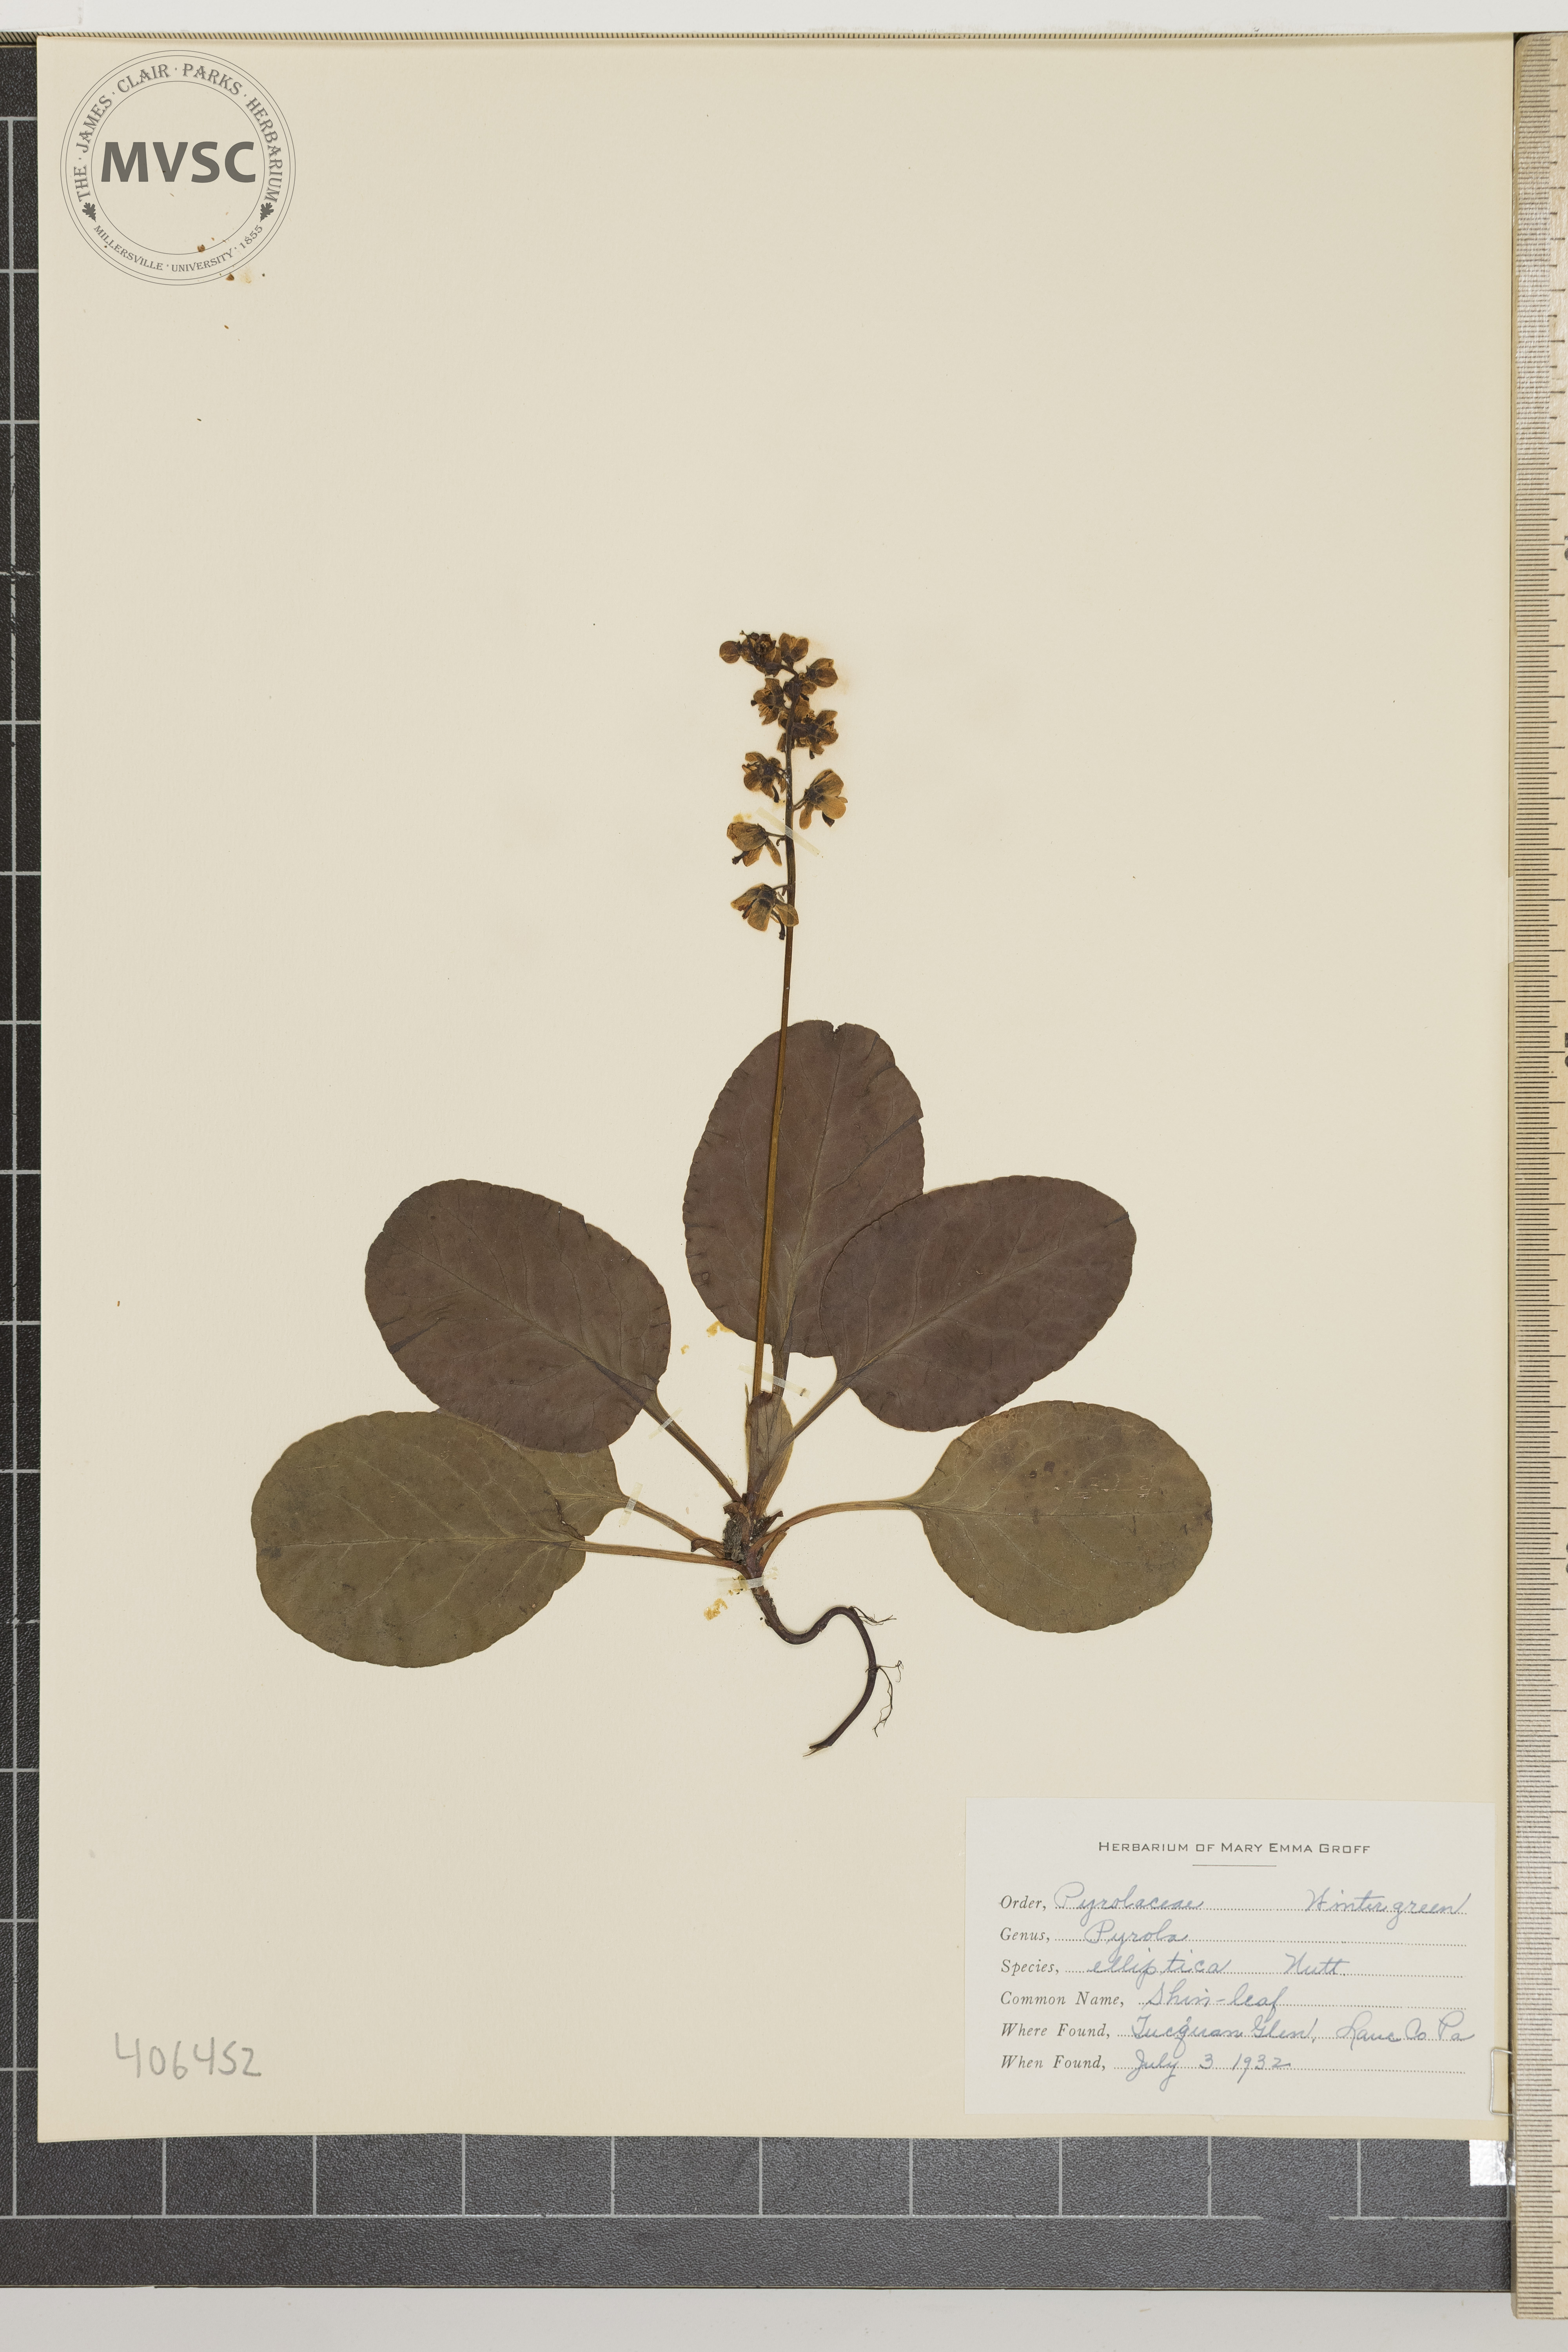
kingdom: Plantae
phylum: Tracheophyta
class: Magnoliopsida
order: Ericales
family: Ericaceae
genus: Pyrola
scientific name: Pyrola elliptica
